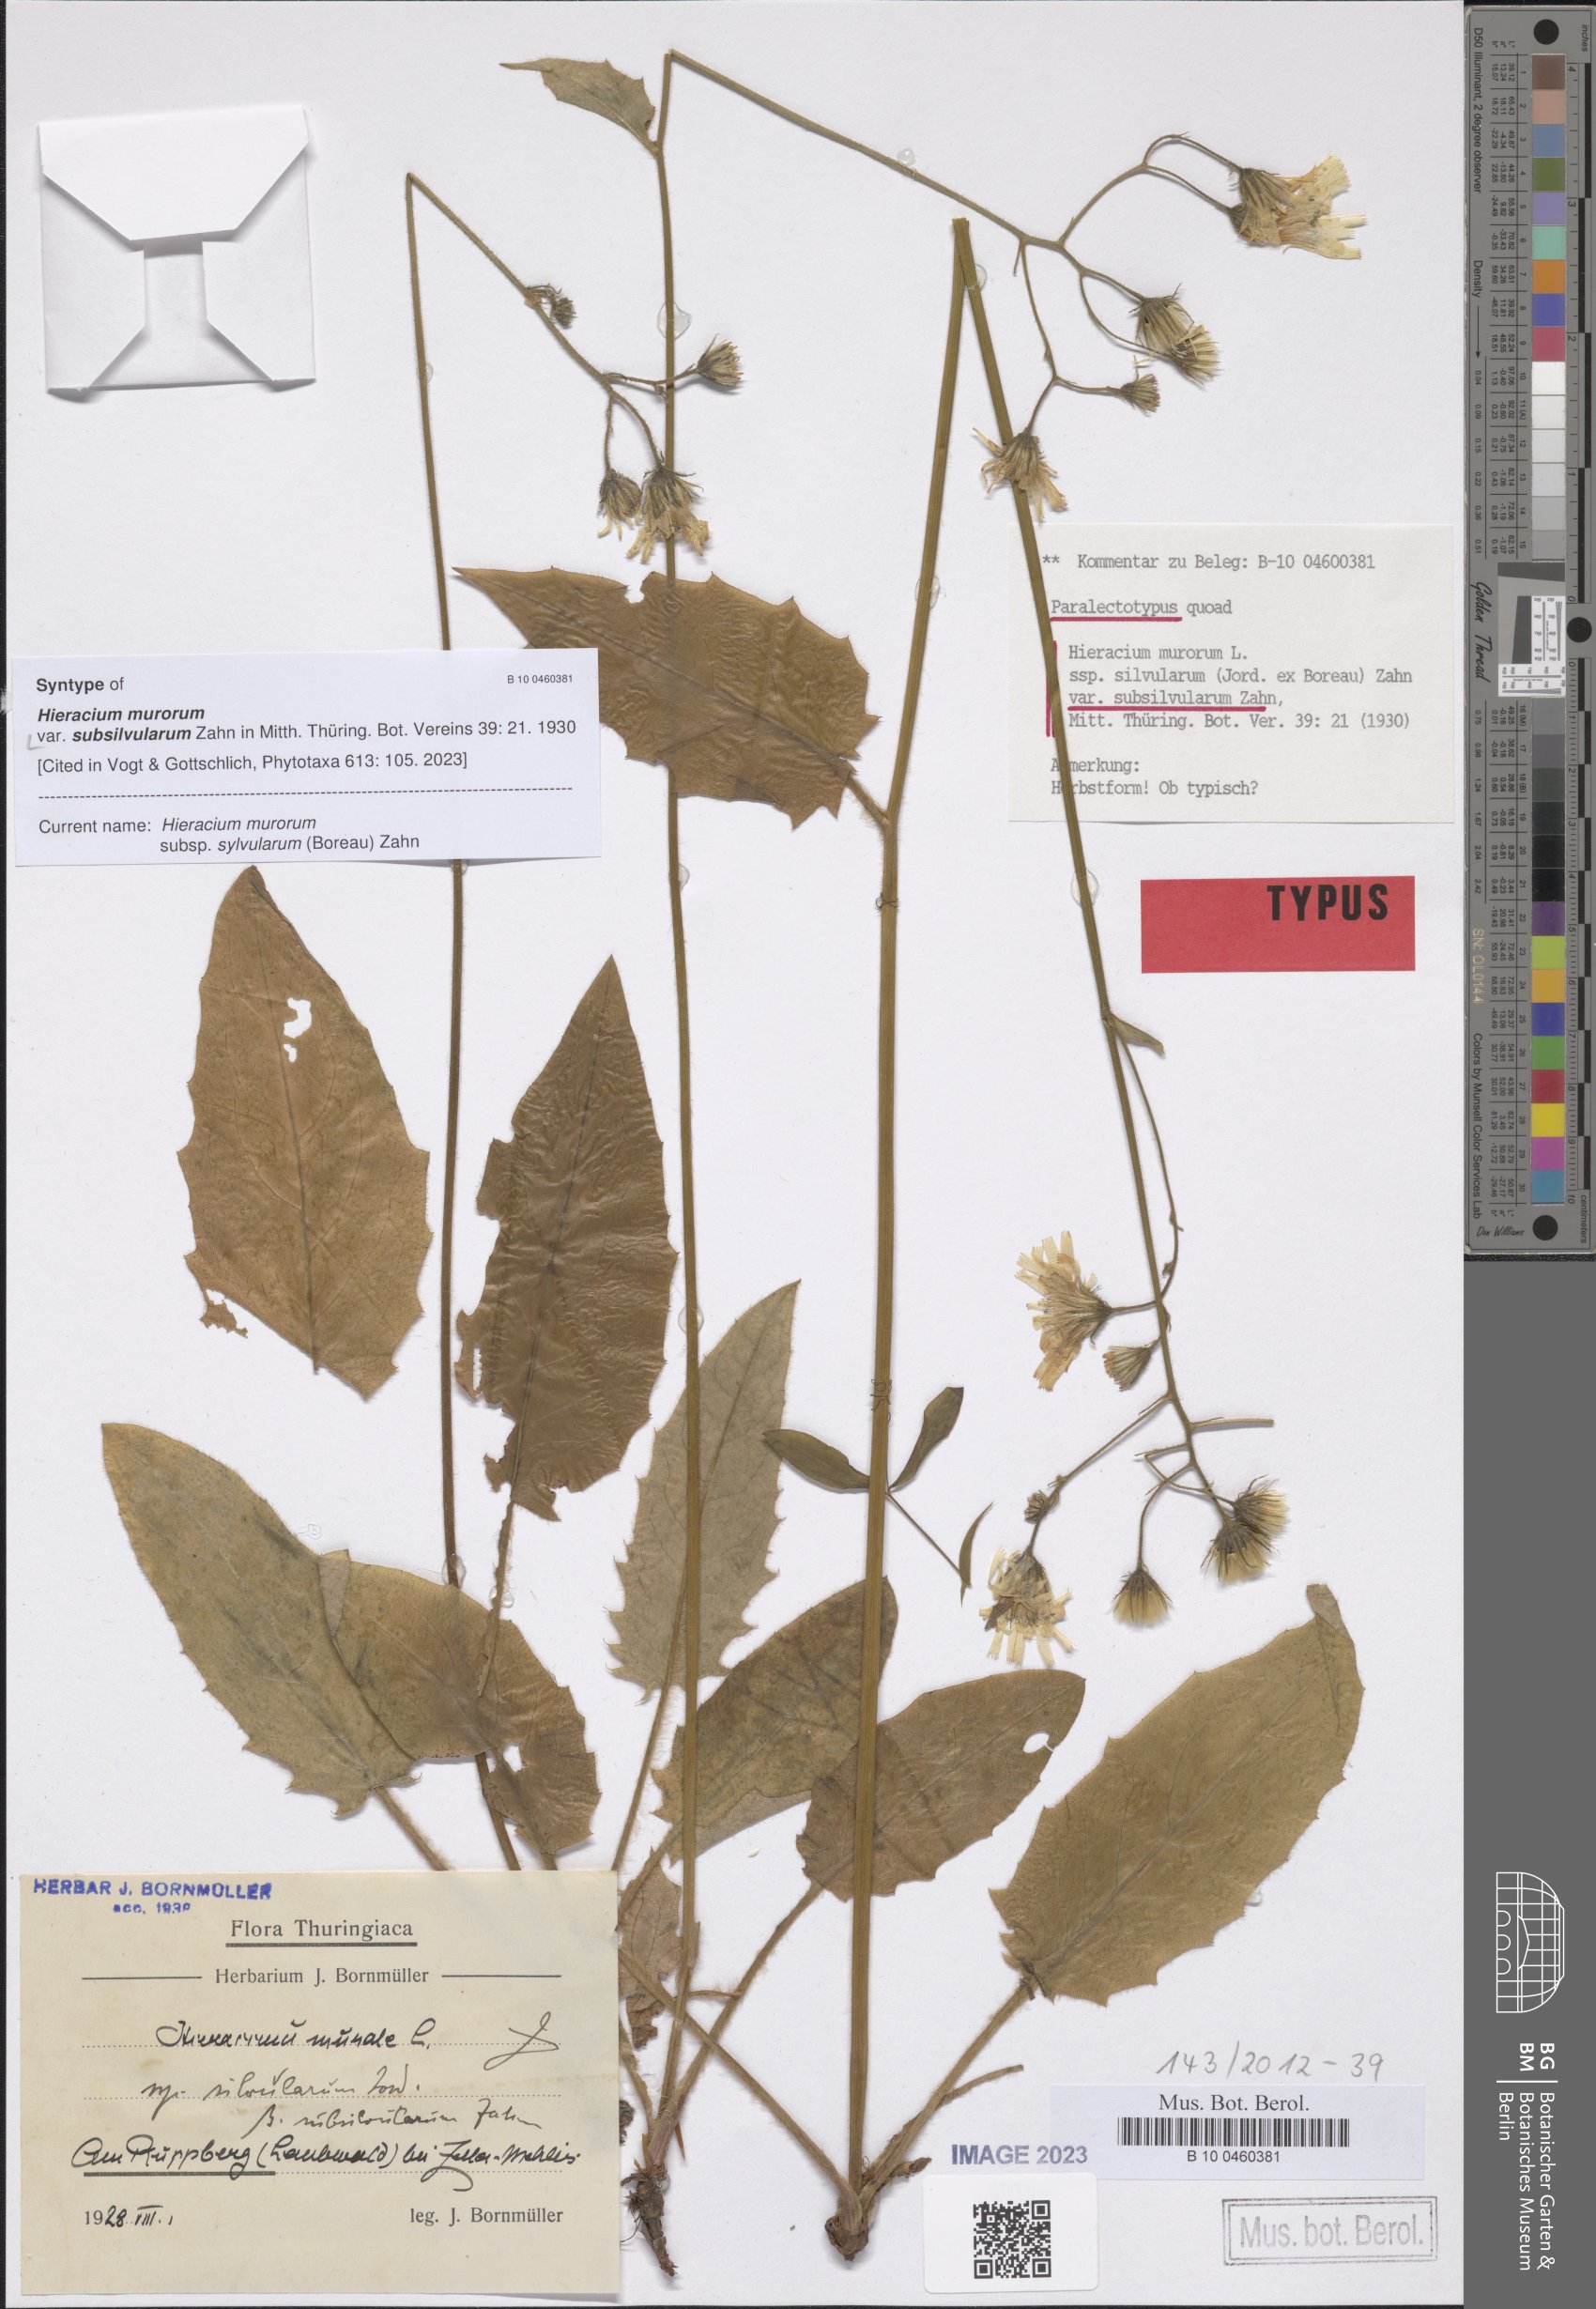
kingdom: Plantae
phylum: Tracheophyta
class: Magnoliopsida
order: Asterales
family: Asteraceae
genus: Hieracium
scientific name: Hieracium murorum
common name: Wall hawkweed
